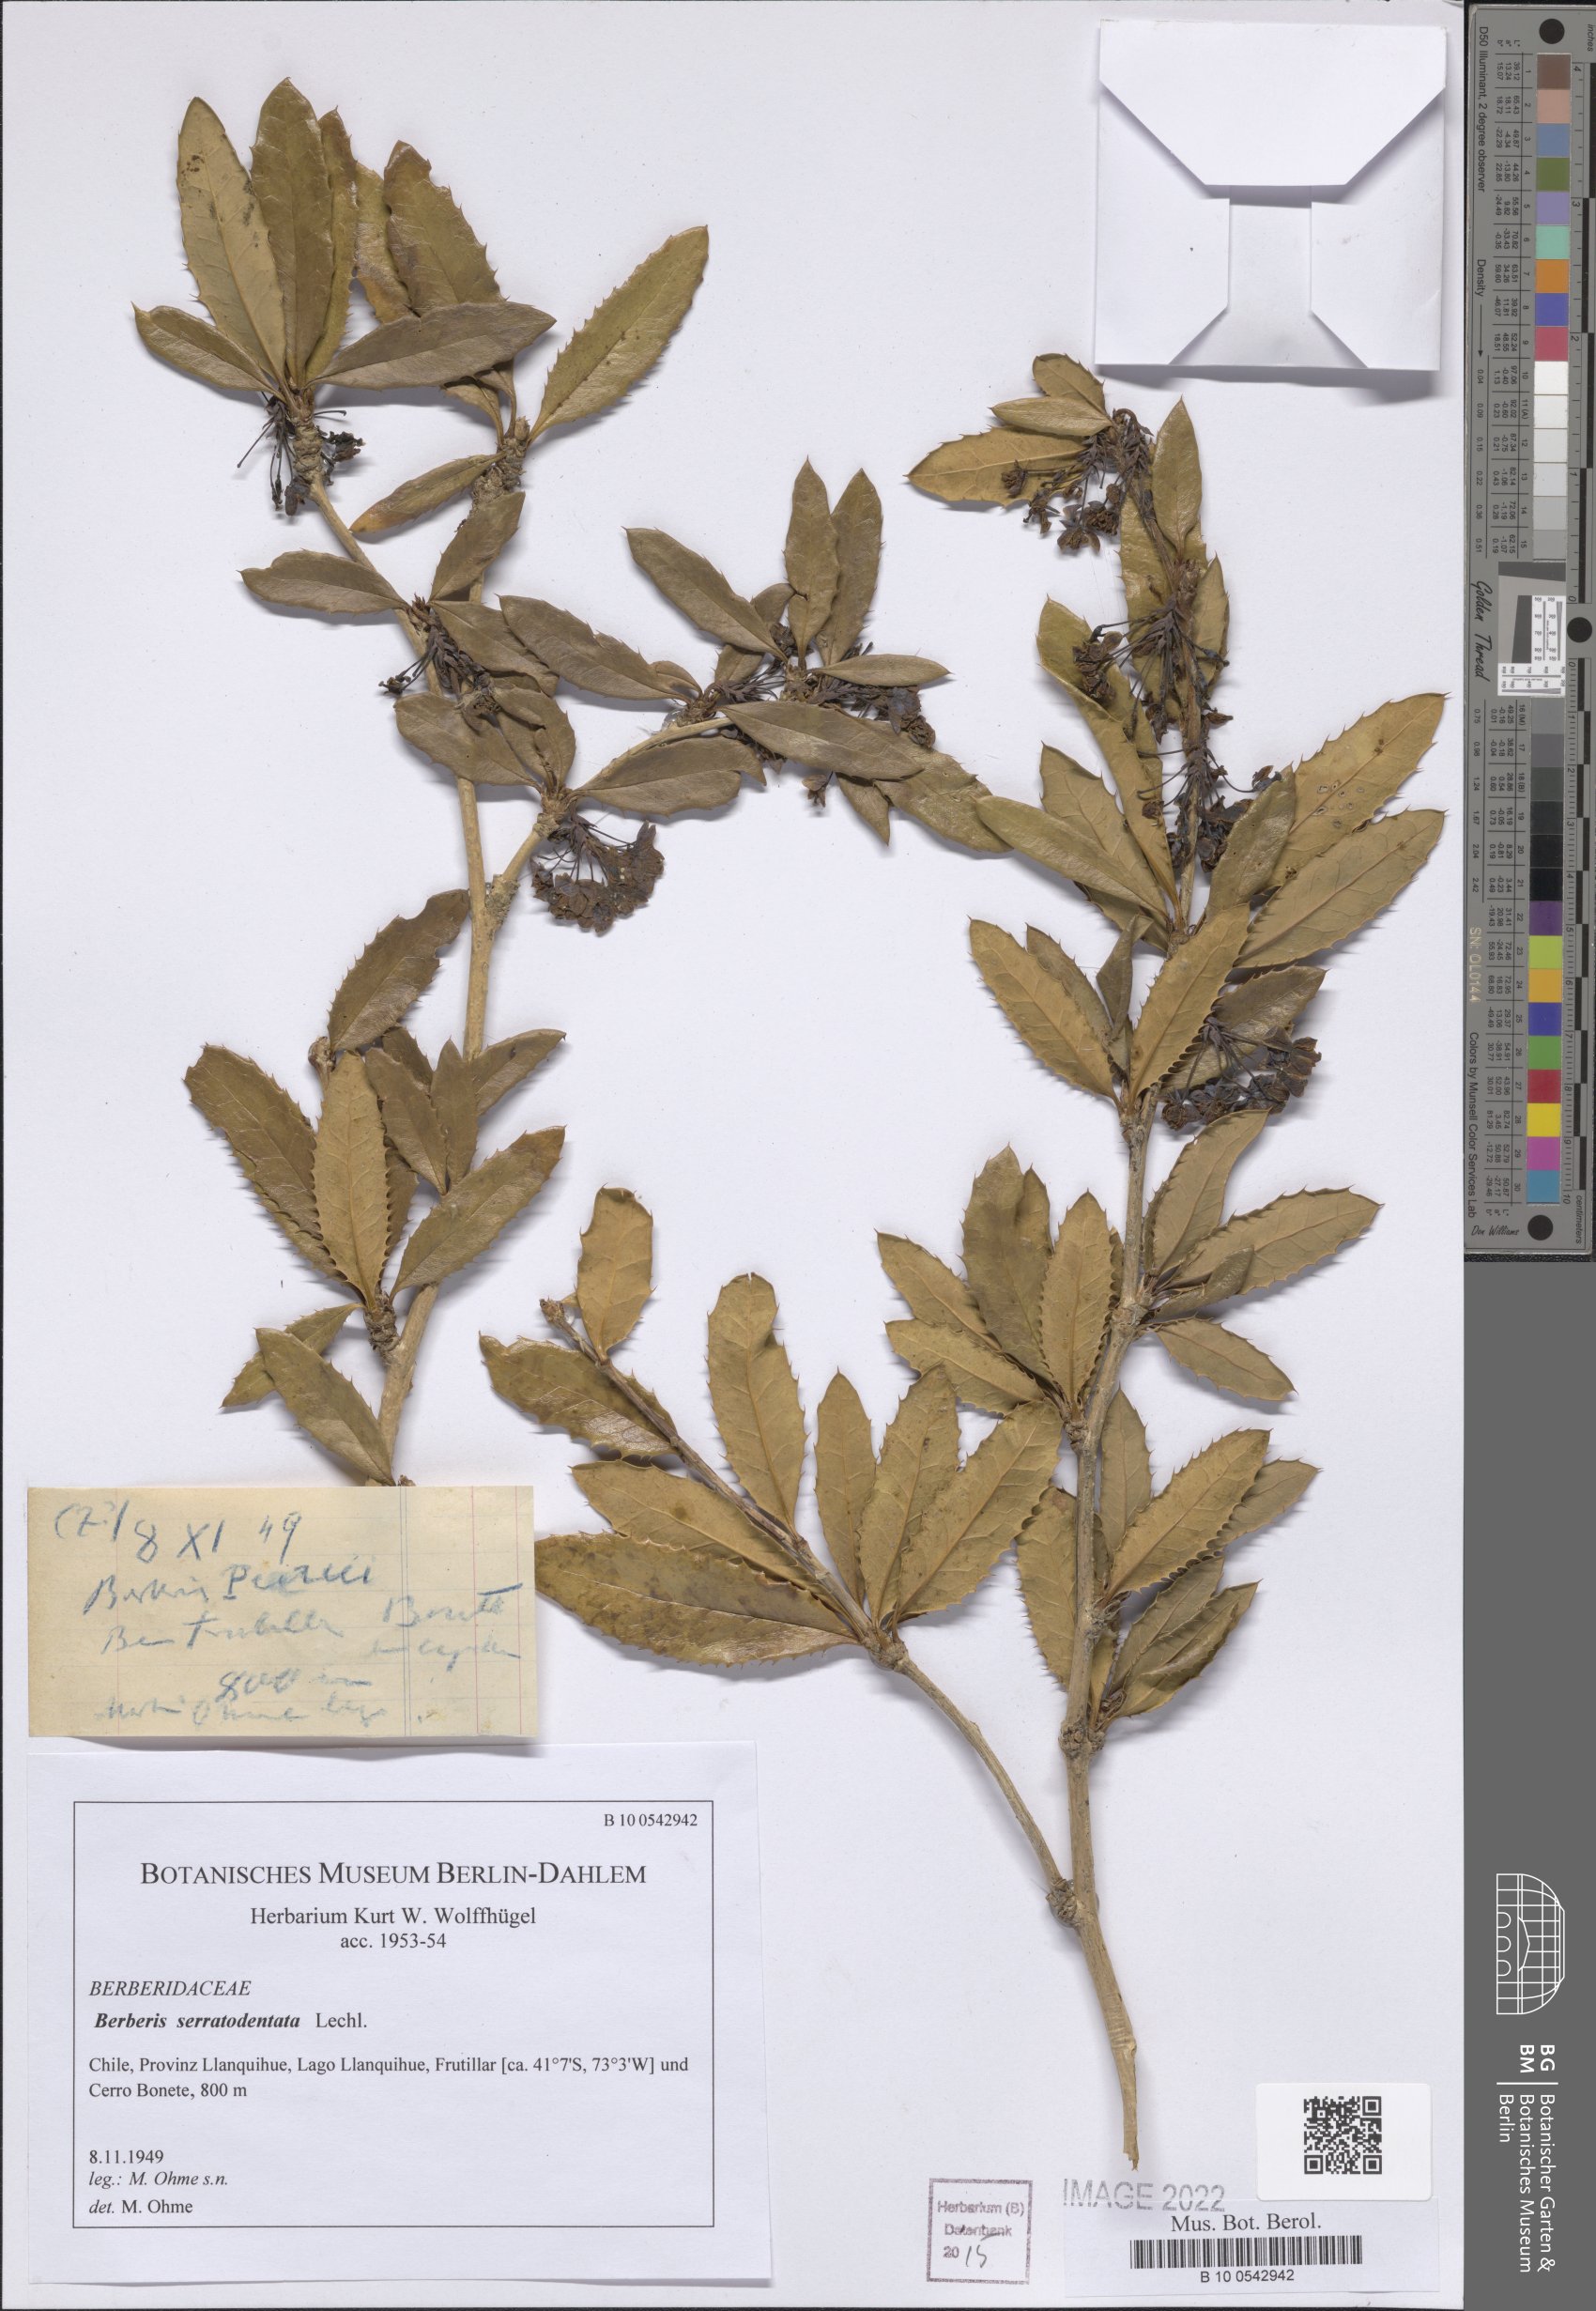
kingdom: Plantae
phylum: Tracheophyta
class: Magnoliopsida
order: Ranunculales
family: Berberidaceae
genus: Berberis
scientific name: Berberis serratodentata
